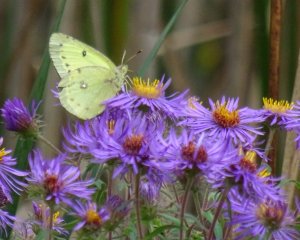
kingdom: Animalia
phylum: Arthropoda
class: Insecta
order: Lepidoptera
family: Pieridae
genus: Colias
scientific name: Colias philodice
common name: Clouded Sulphur
